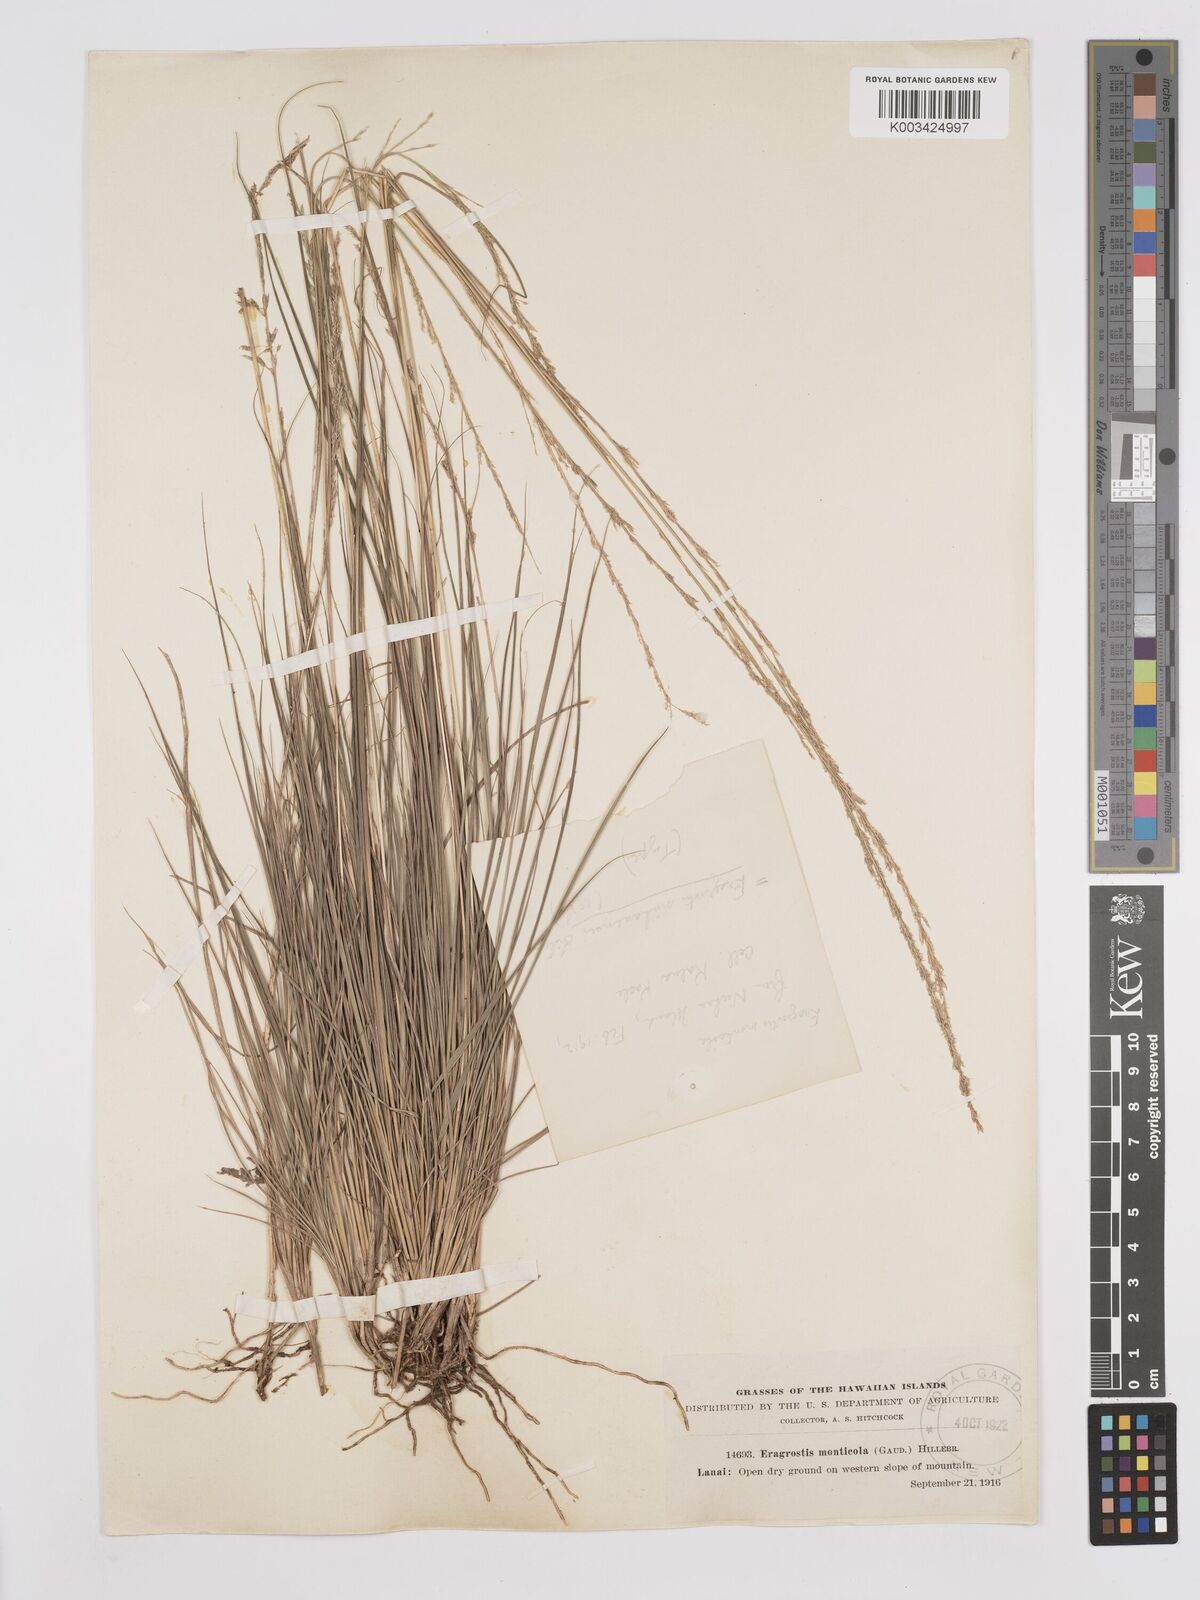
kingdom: Plantae
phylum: Tracheophyta
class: Liliopsida
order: Poales
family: Poaceae
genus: Eragrostis
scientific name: Eragrostis monticola
